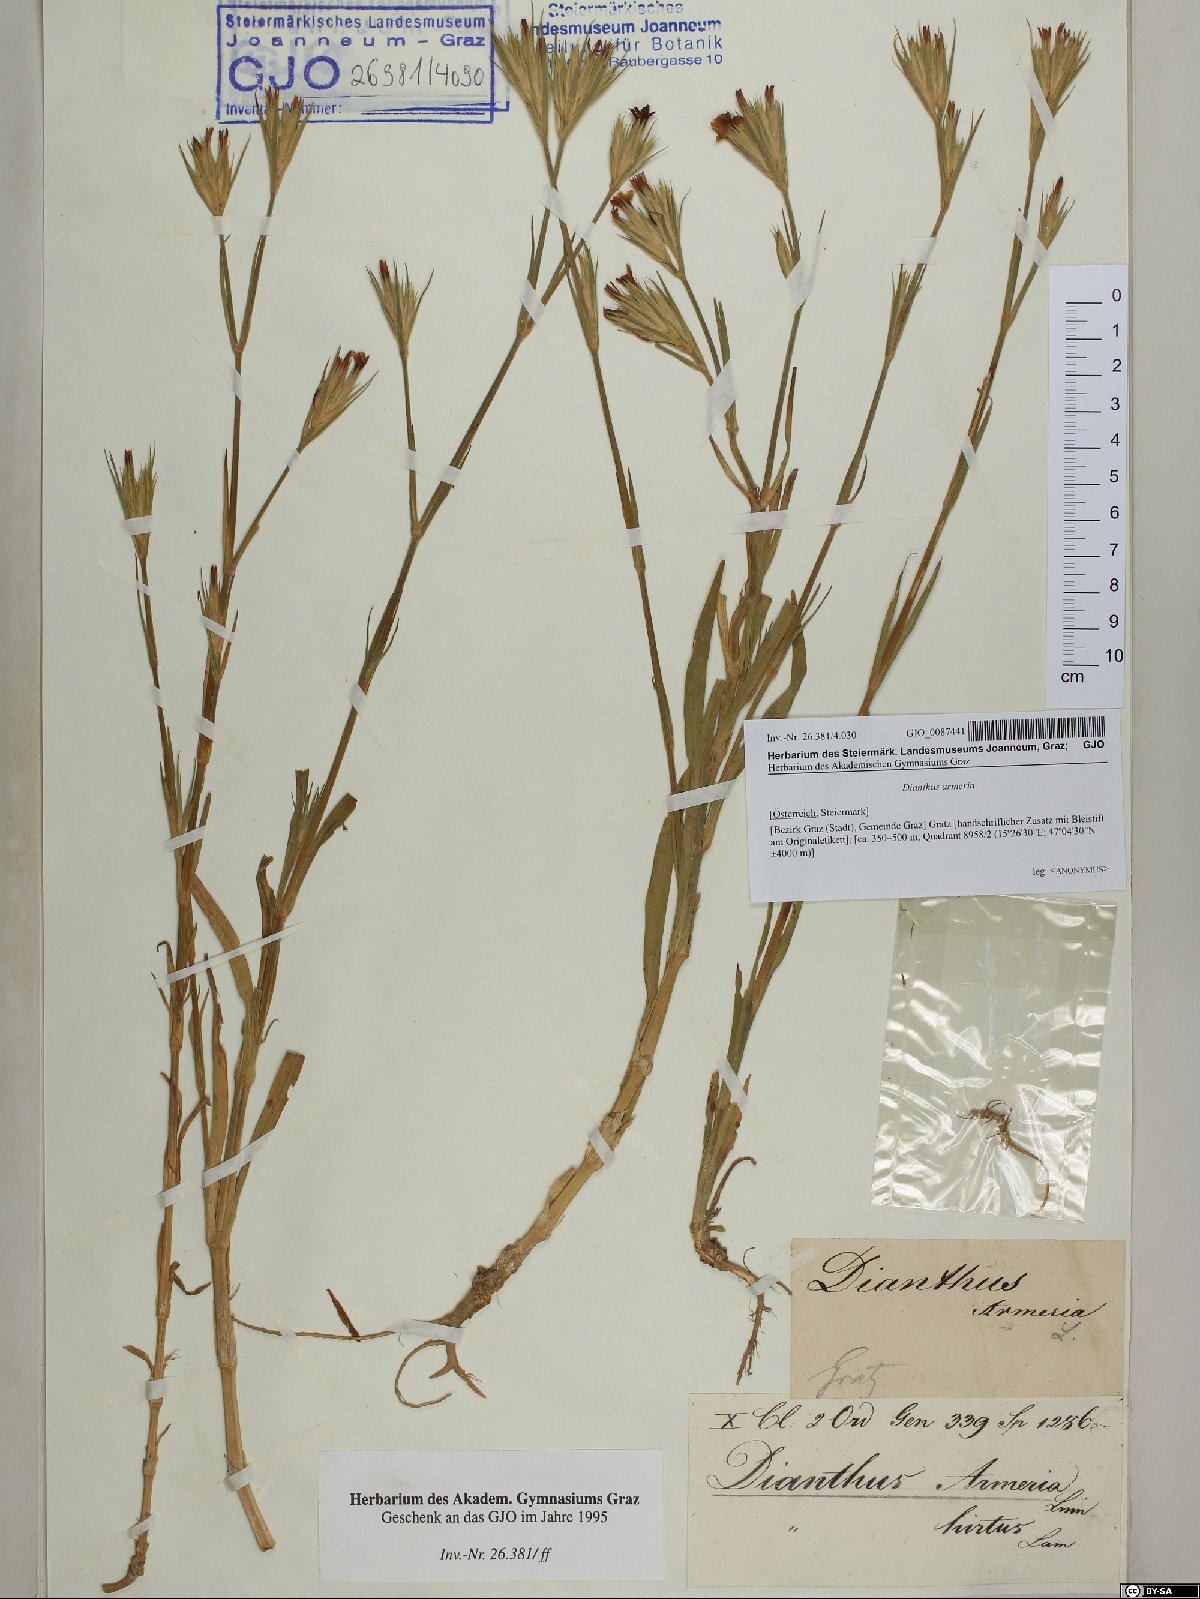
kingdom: Plantae
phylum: Tracheophyta
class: Magnoliopsida
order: Caryophyllales
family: Caryophyllaceae
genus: Dianthus
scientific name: Dianthus armeria
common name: Deptford pink
